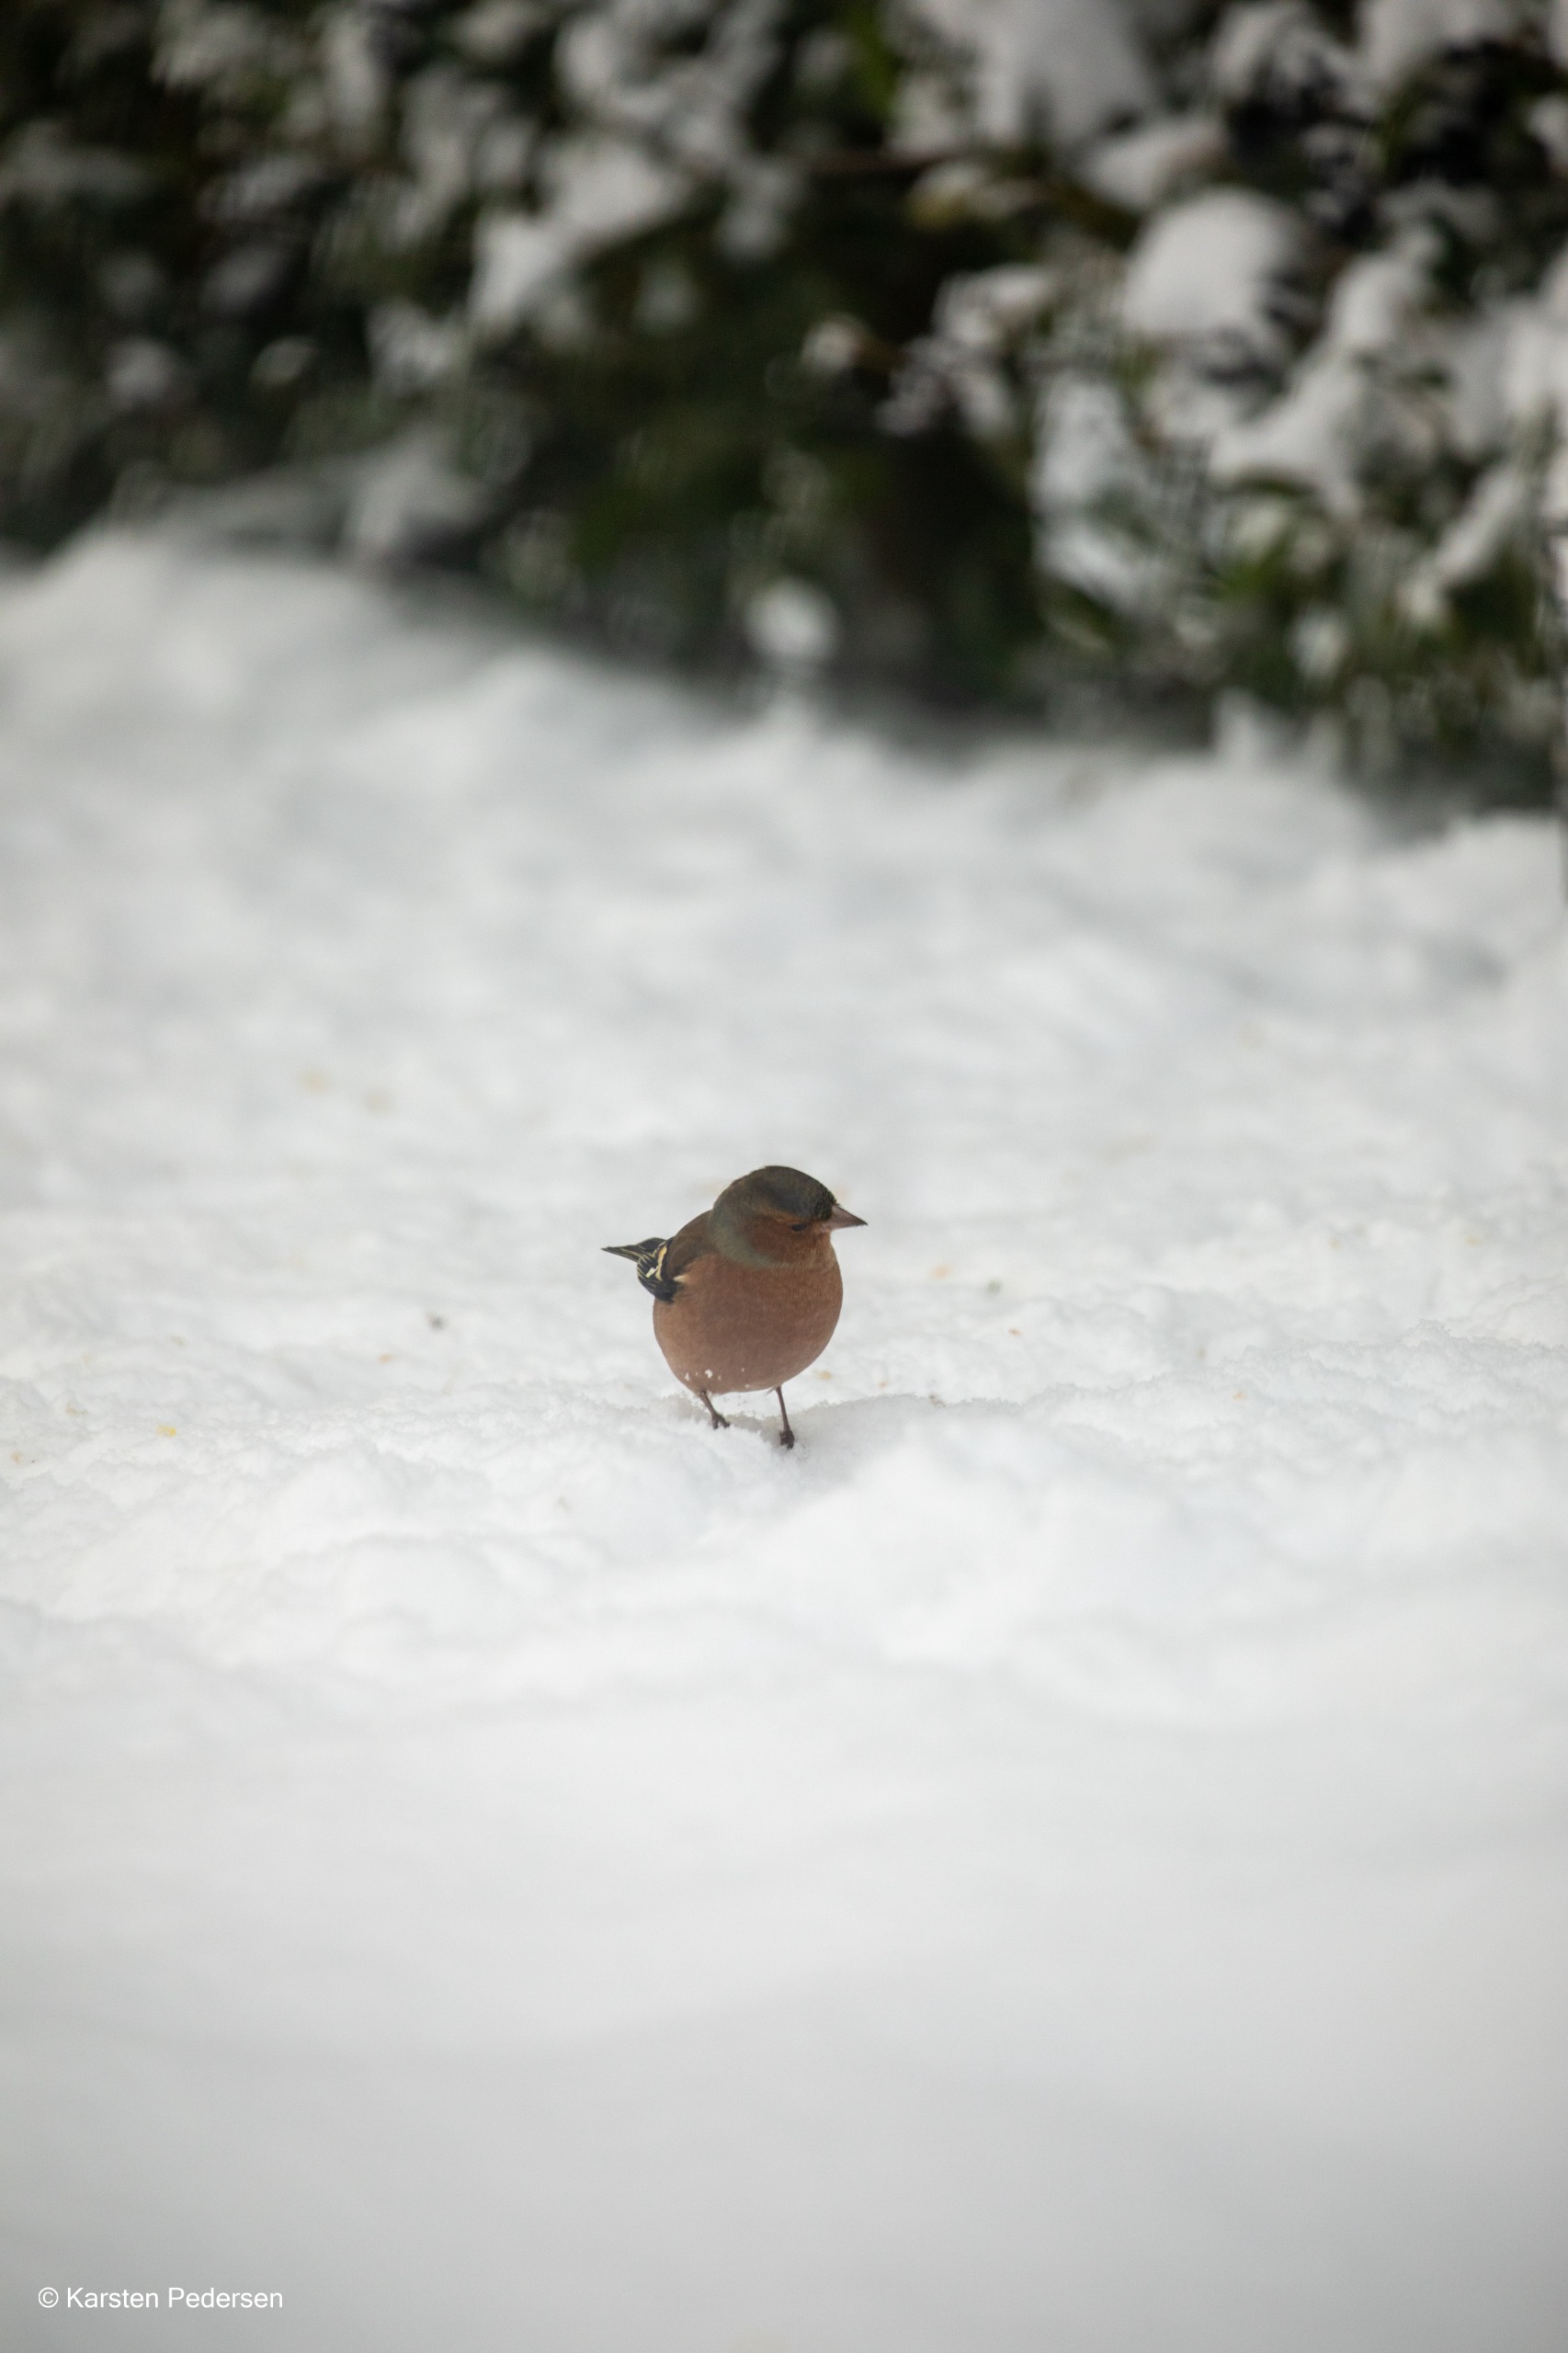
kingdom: Animalia
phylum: Chordata
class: Aves
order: Passeriformes
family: Fringillidae
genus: Fringilla
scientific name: Fringilla coelebs
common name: Bogfinke
